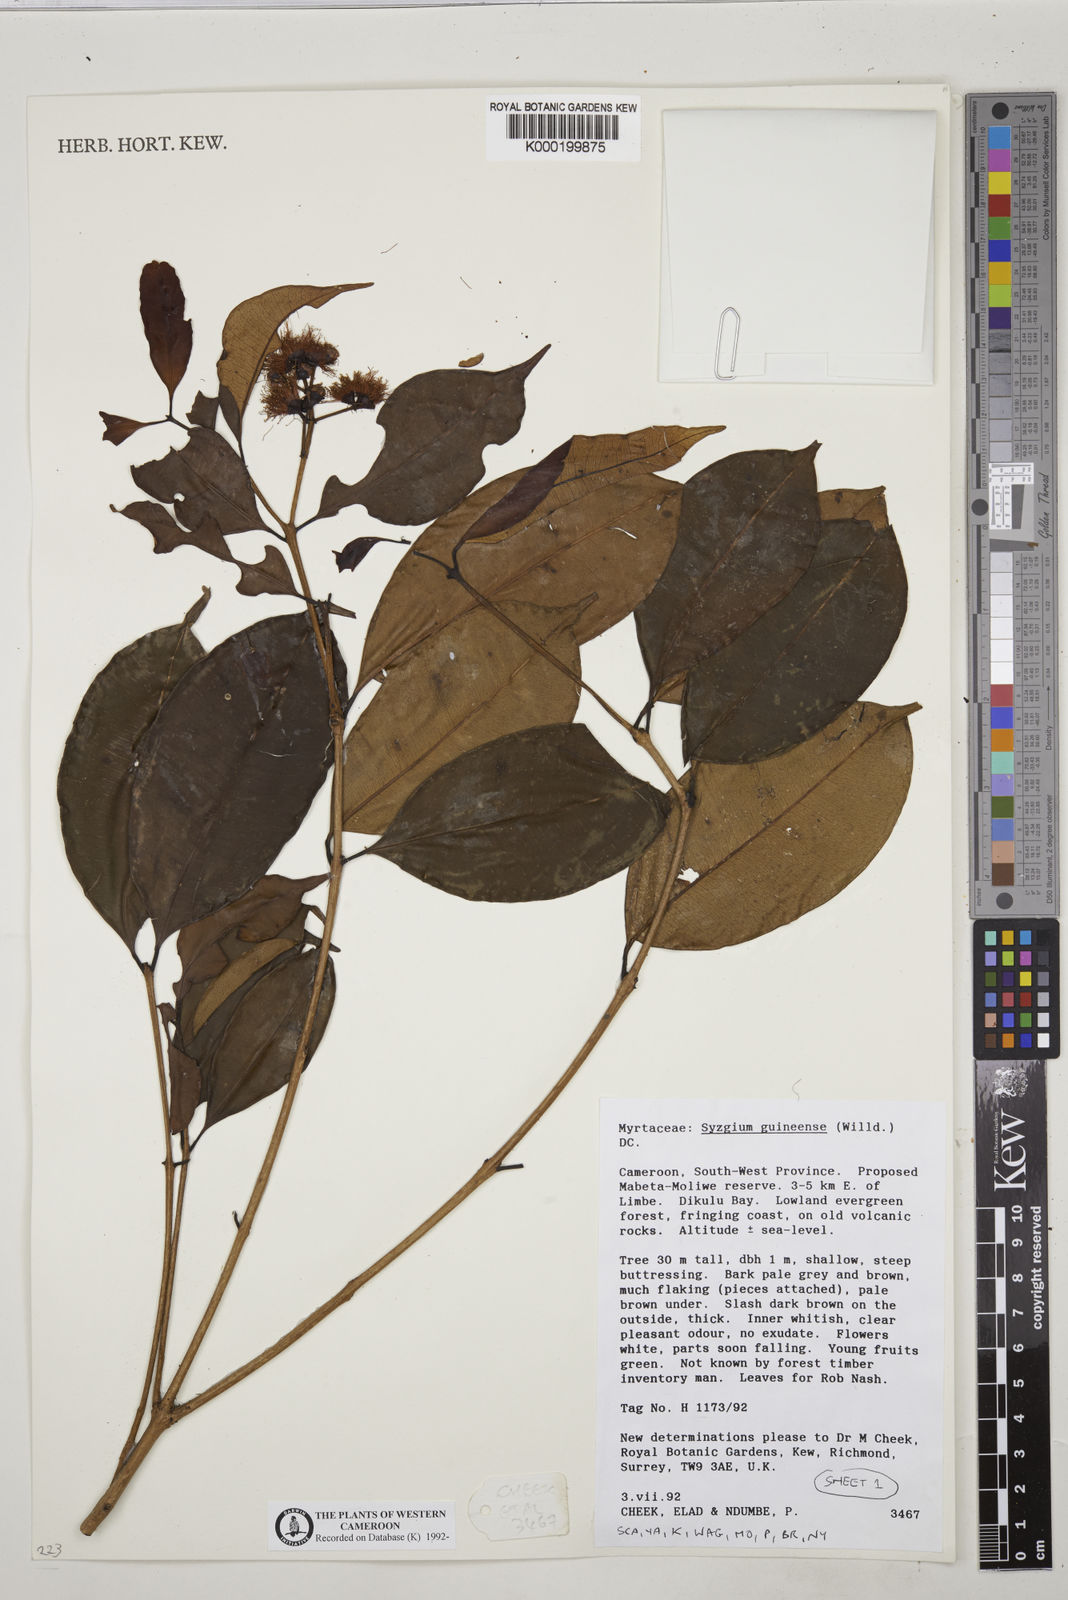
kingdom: Plantae
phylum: Tracheophyta
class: Magnoliopsida
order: Myrtales
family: Myrtaceae
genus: Syzygium
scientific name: Syzygium guineense
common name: Water-pear
